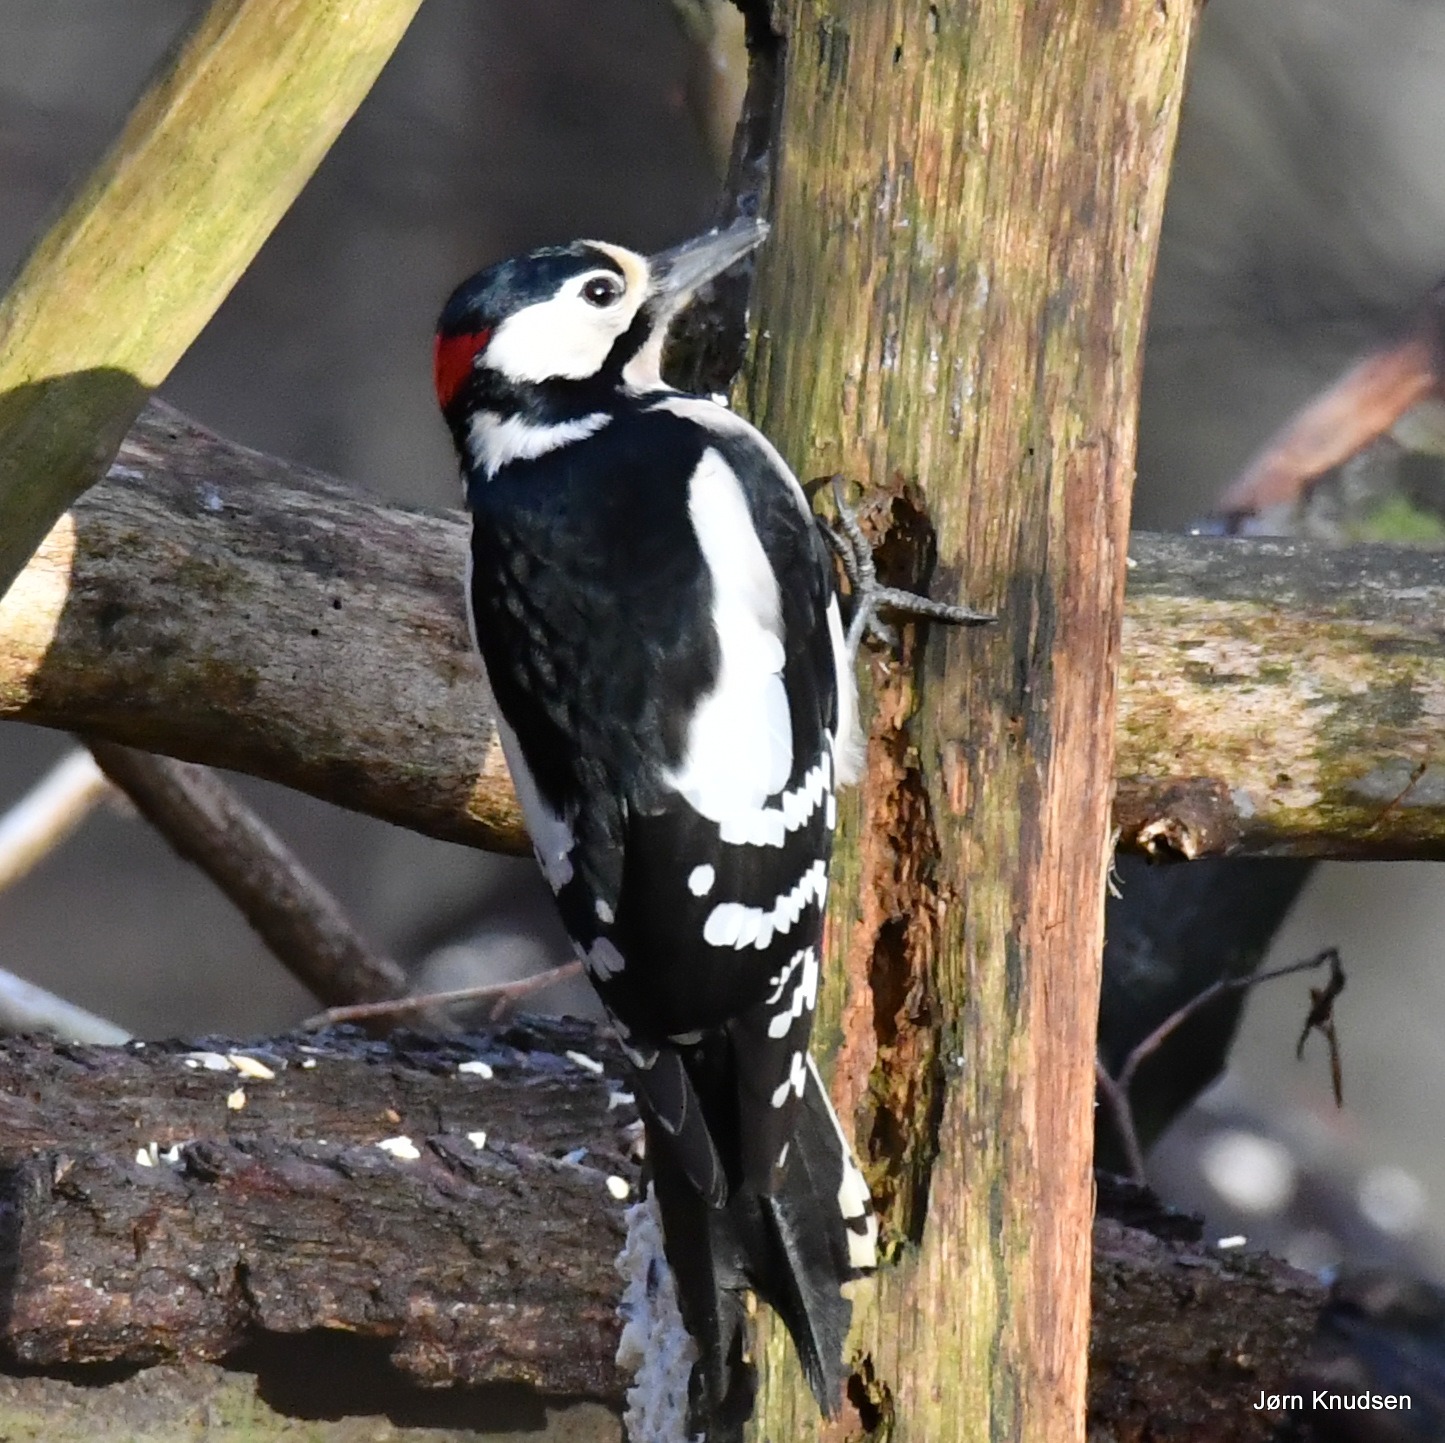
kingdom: Animalia
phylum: Chordata
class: Aves
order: Piciformes
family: Picidae
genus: Dendrocopos
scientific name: Dendrocopos major
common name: Stor flagspætte
